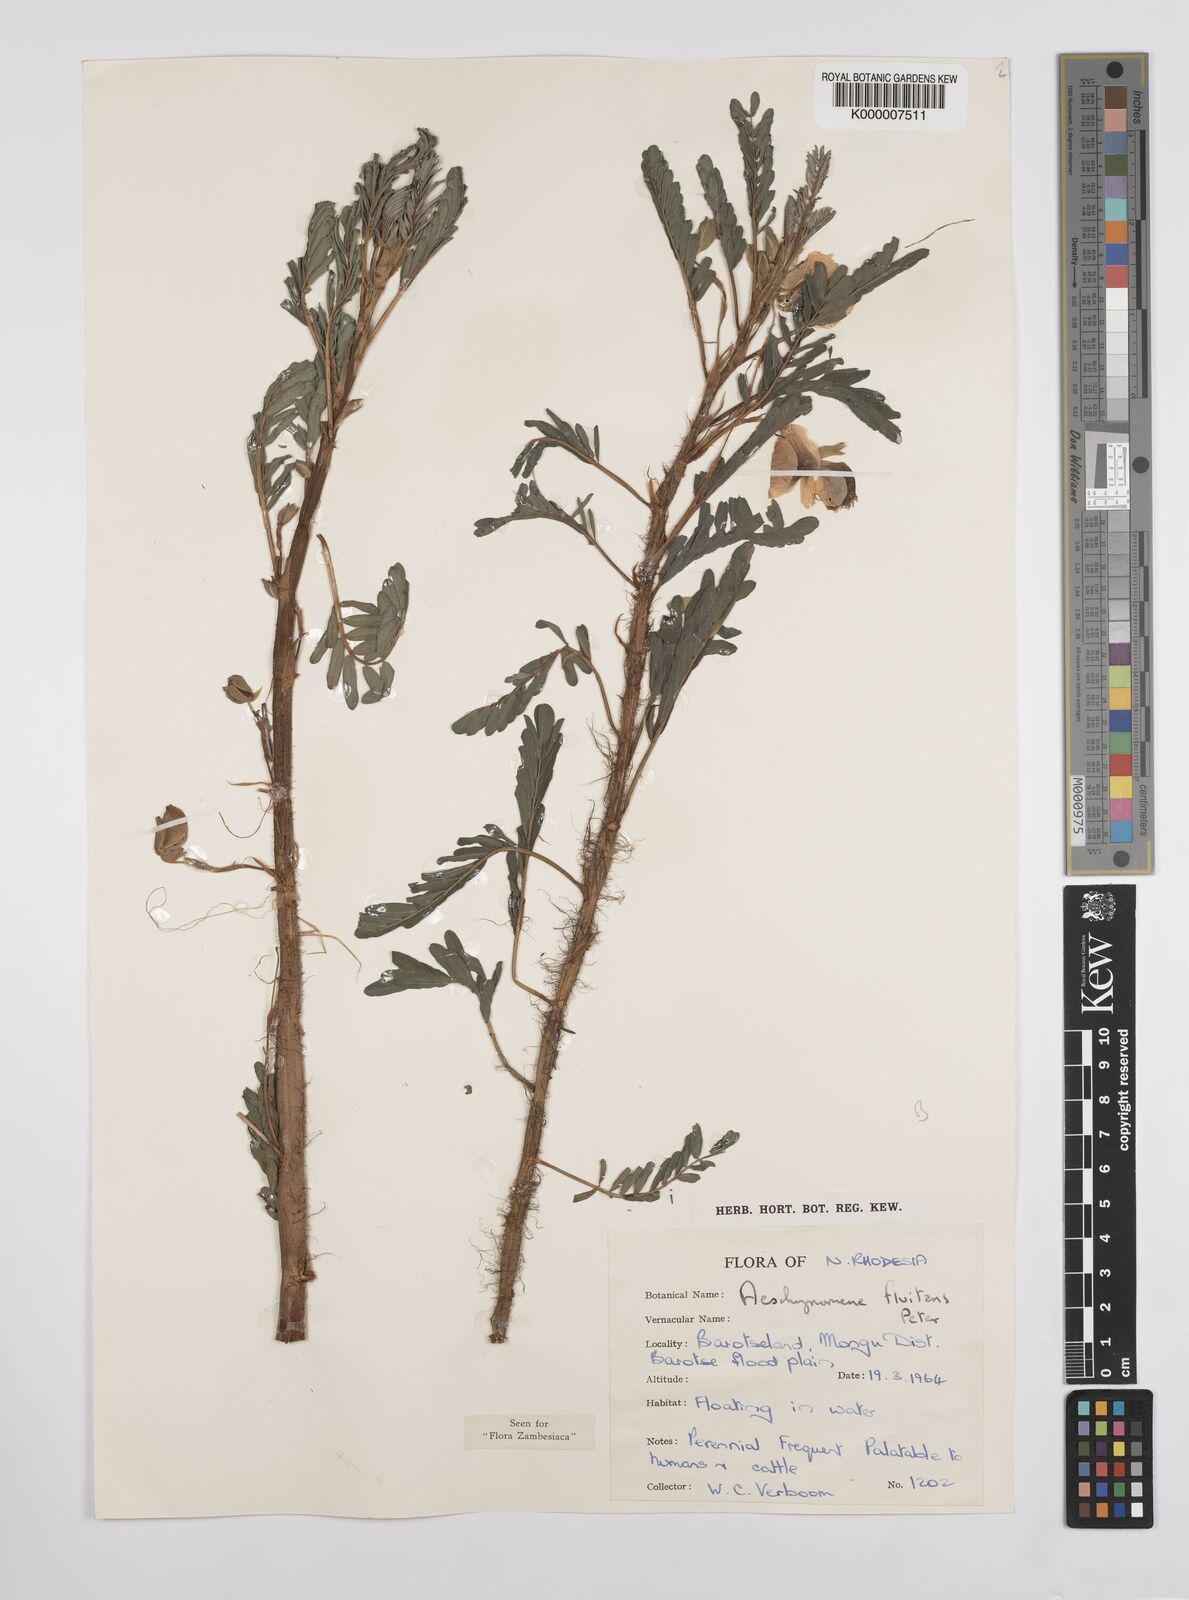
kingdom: Plantae
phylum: Tracheophyta
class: Magnoliopsida
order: Fabales
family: Fabaceae
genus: Aeschynomene
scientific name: Aeschynomene fluitans
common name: Giant water sensitive plant
